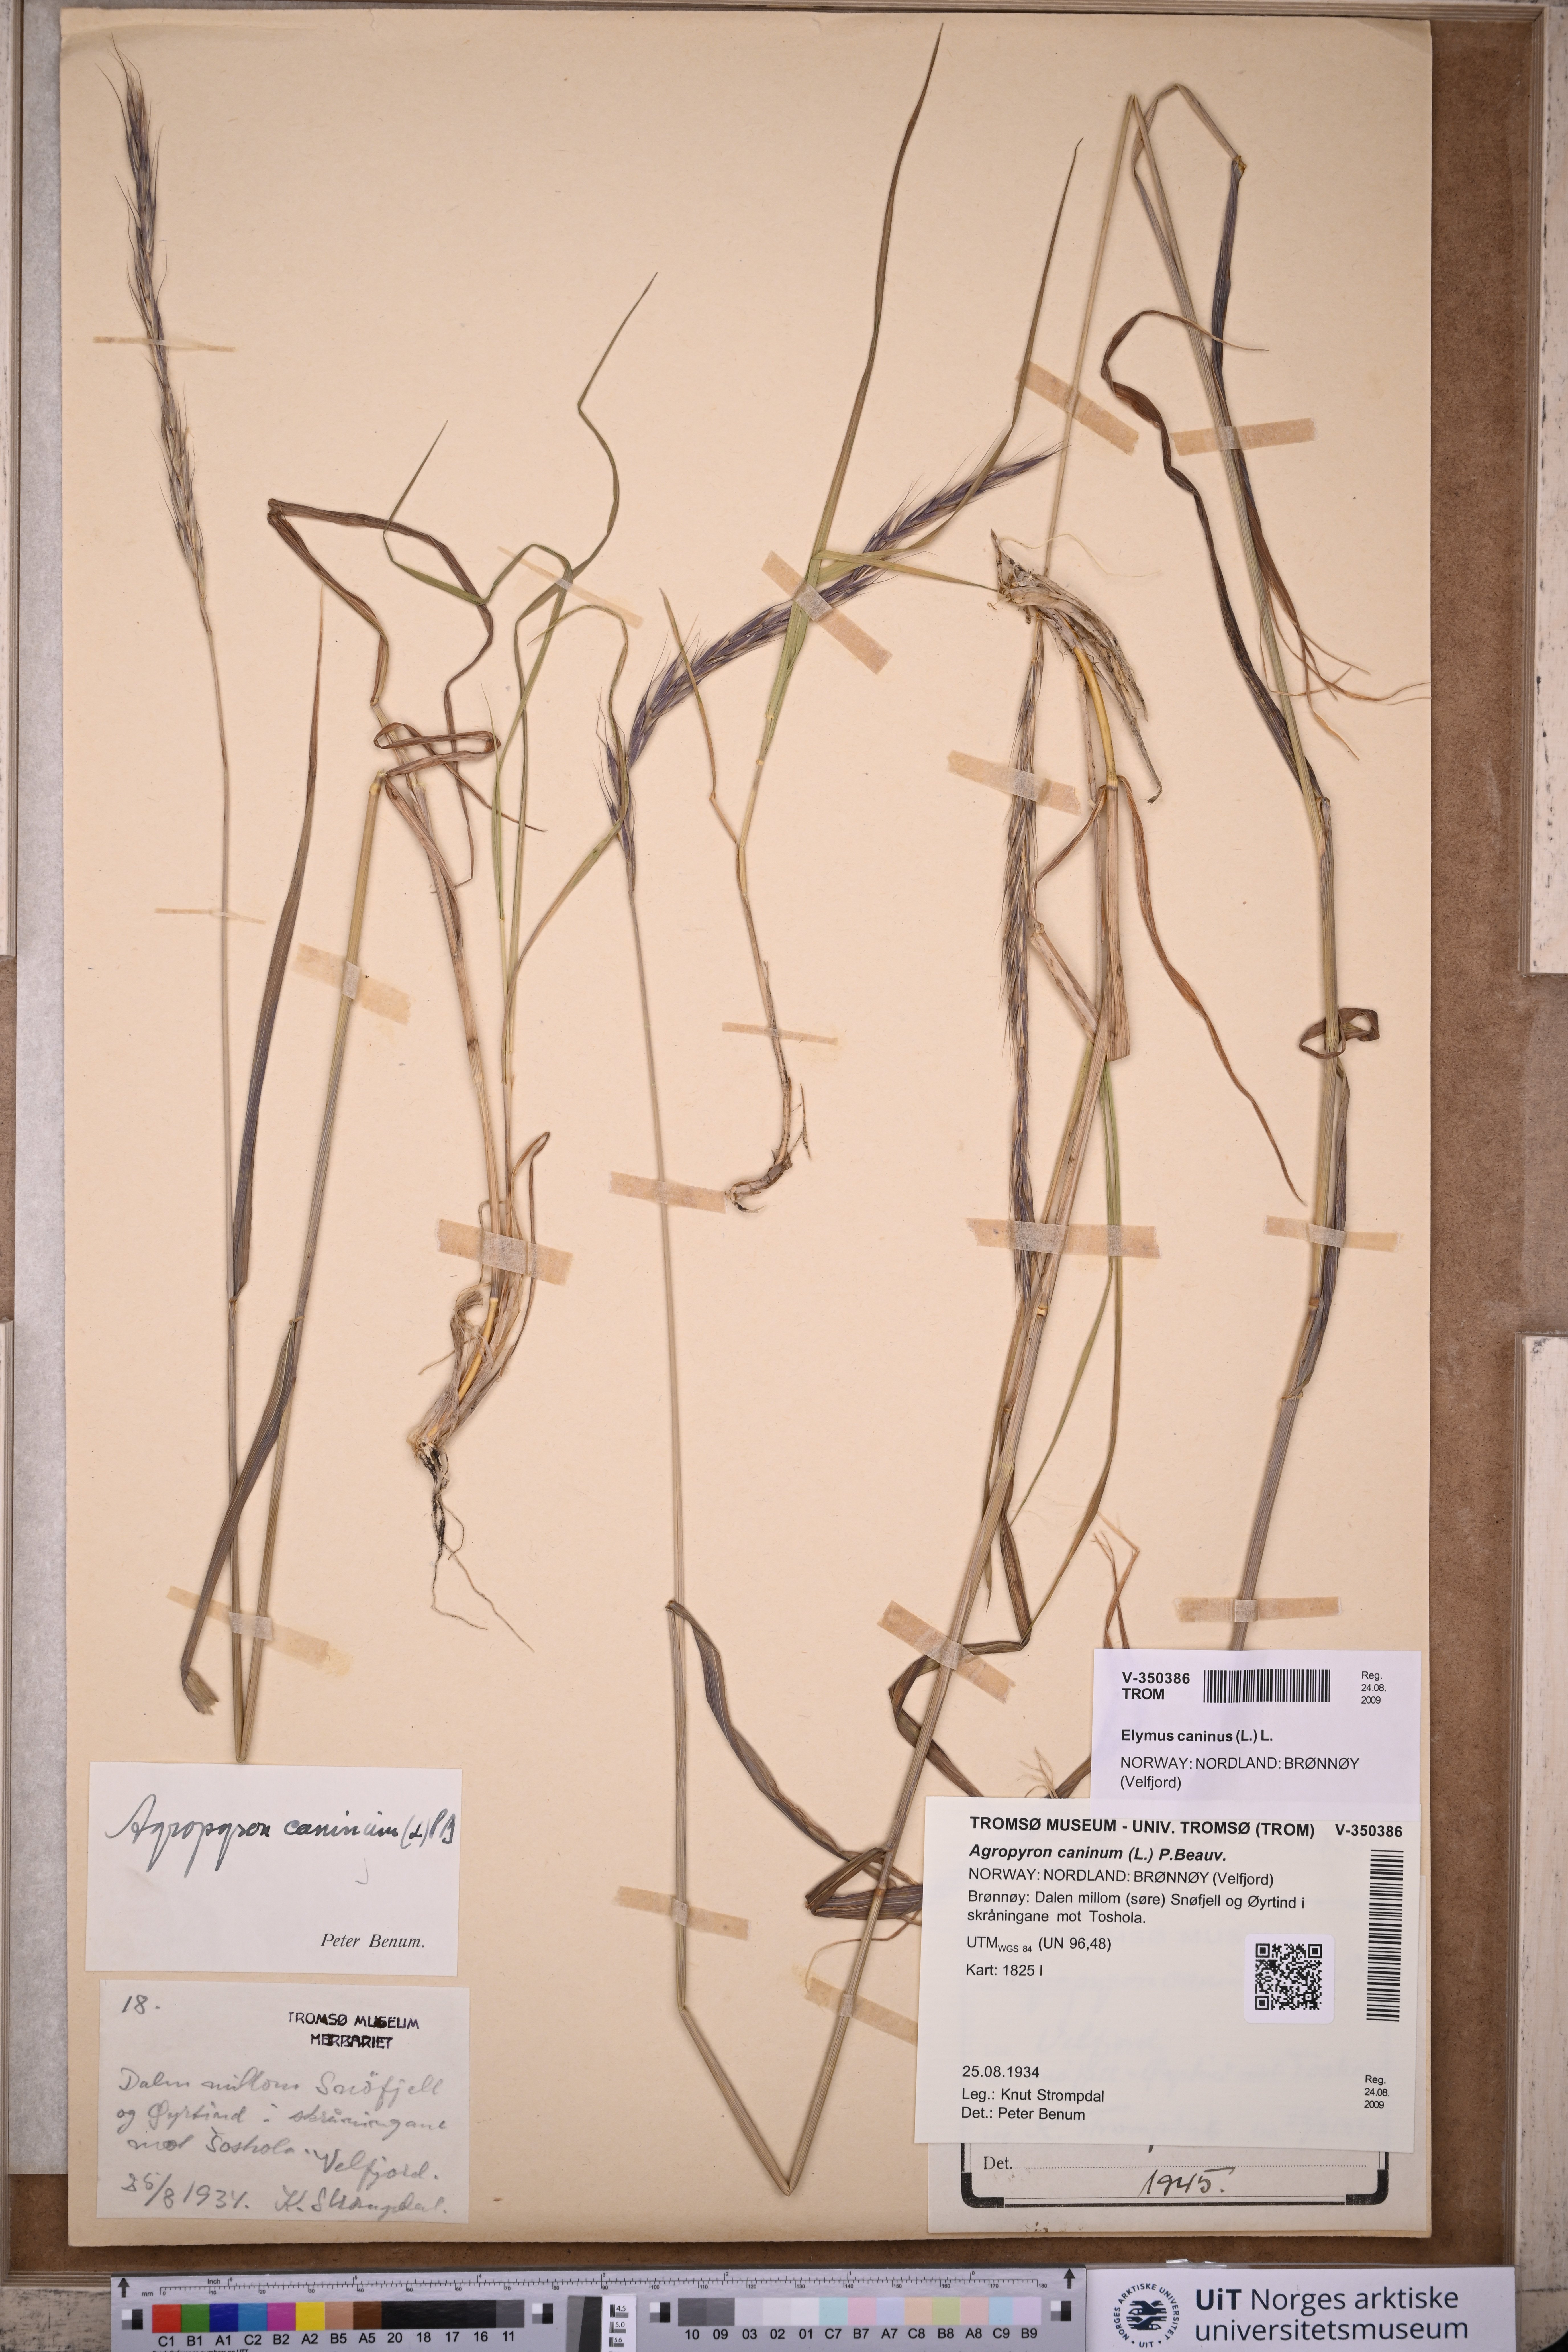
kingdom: Plantae
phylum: Tracheophyta
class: Liliopsida
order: Poales
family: Poaceae
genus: Elymus
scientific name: Elymus caninus
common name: Bearded couch
